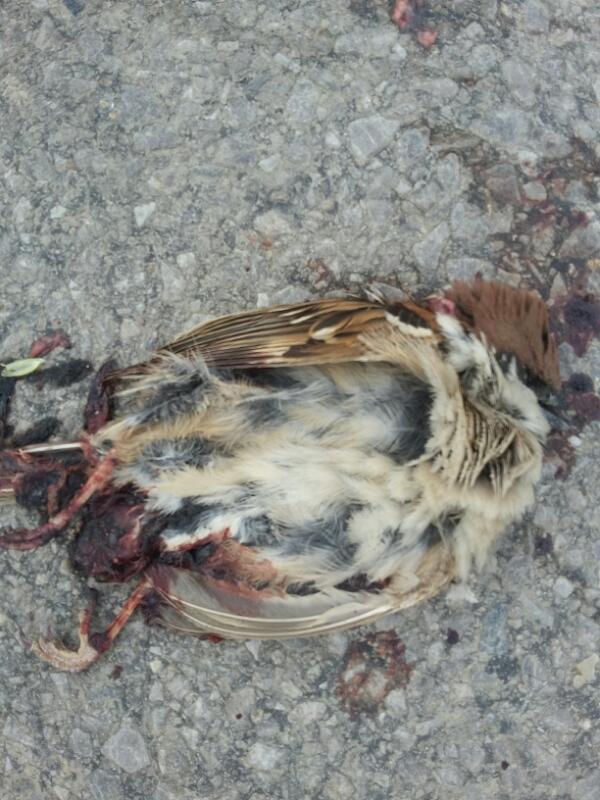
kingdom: Animalia
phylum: Chordata
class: Aves
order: Passeriformes
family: Passeridae
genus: Passer
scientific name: Passer montanus
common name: Eurasian tree sparrow
